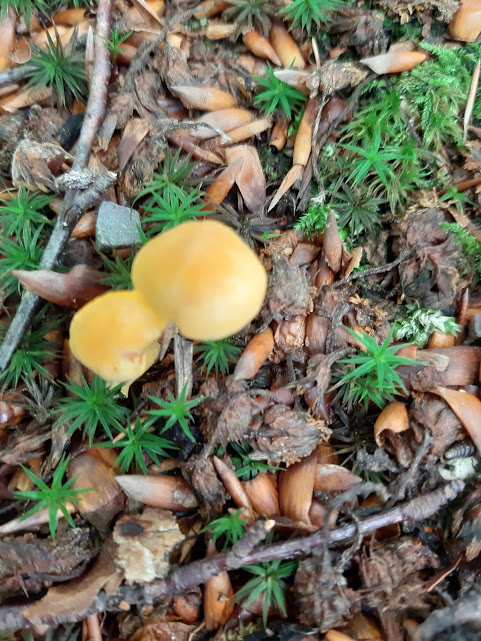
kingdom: Fungi
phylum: Basidiomycota
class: Agaricomycetes
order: Cantharellales
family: Hydnaceae
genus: Cantharellus
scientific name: Cantharellus cibarius
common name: almindelig kantarel
